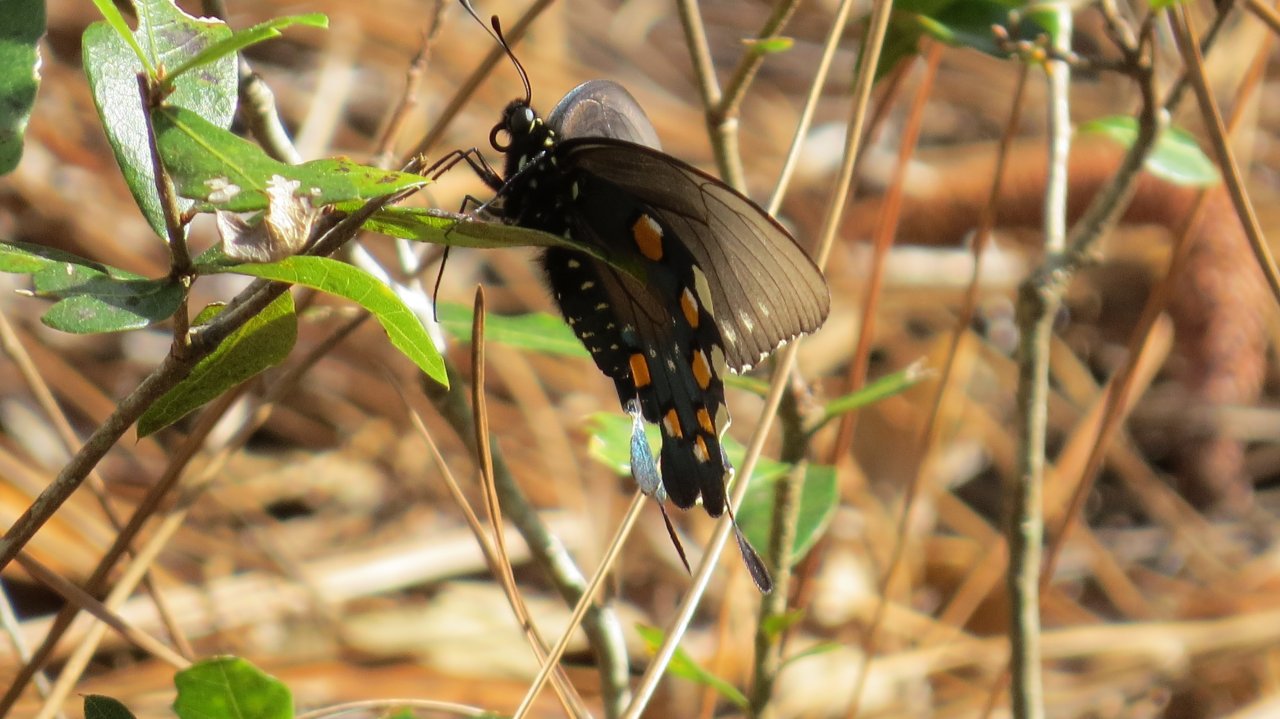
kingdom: Animalia
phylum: Arthropoda
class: Insecta
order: Lepidoptera
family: Papilionidae
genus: Battus
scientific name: Battus philenor
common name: Pipevine Swallowtail
